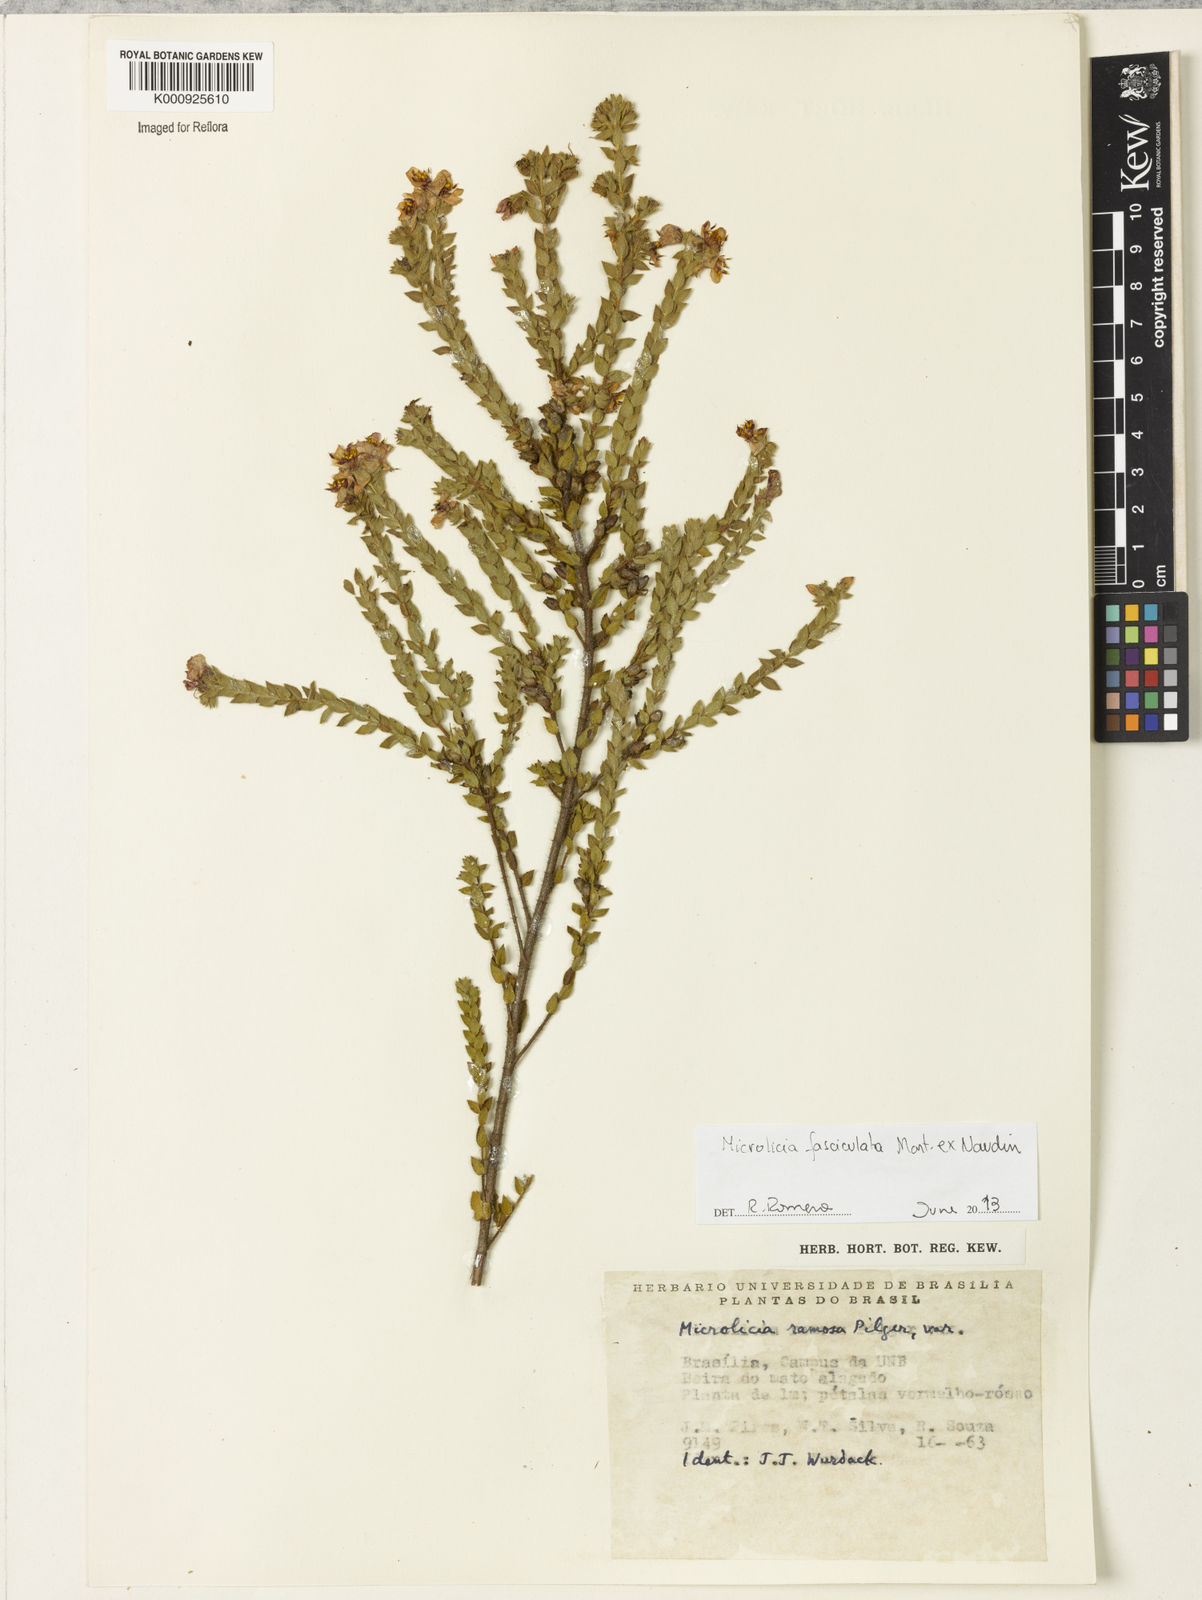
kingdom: Plantae
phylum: Tracheophyta
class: Magnoliopsida
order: Myrtales
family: Melastomataceae
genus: Microlicia
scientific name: Microlicia fasciculata
